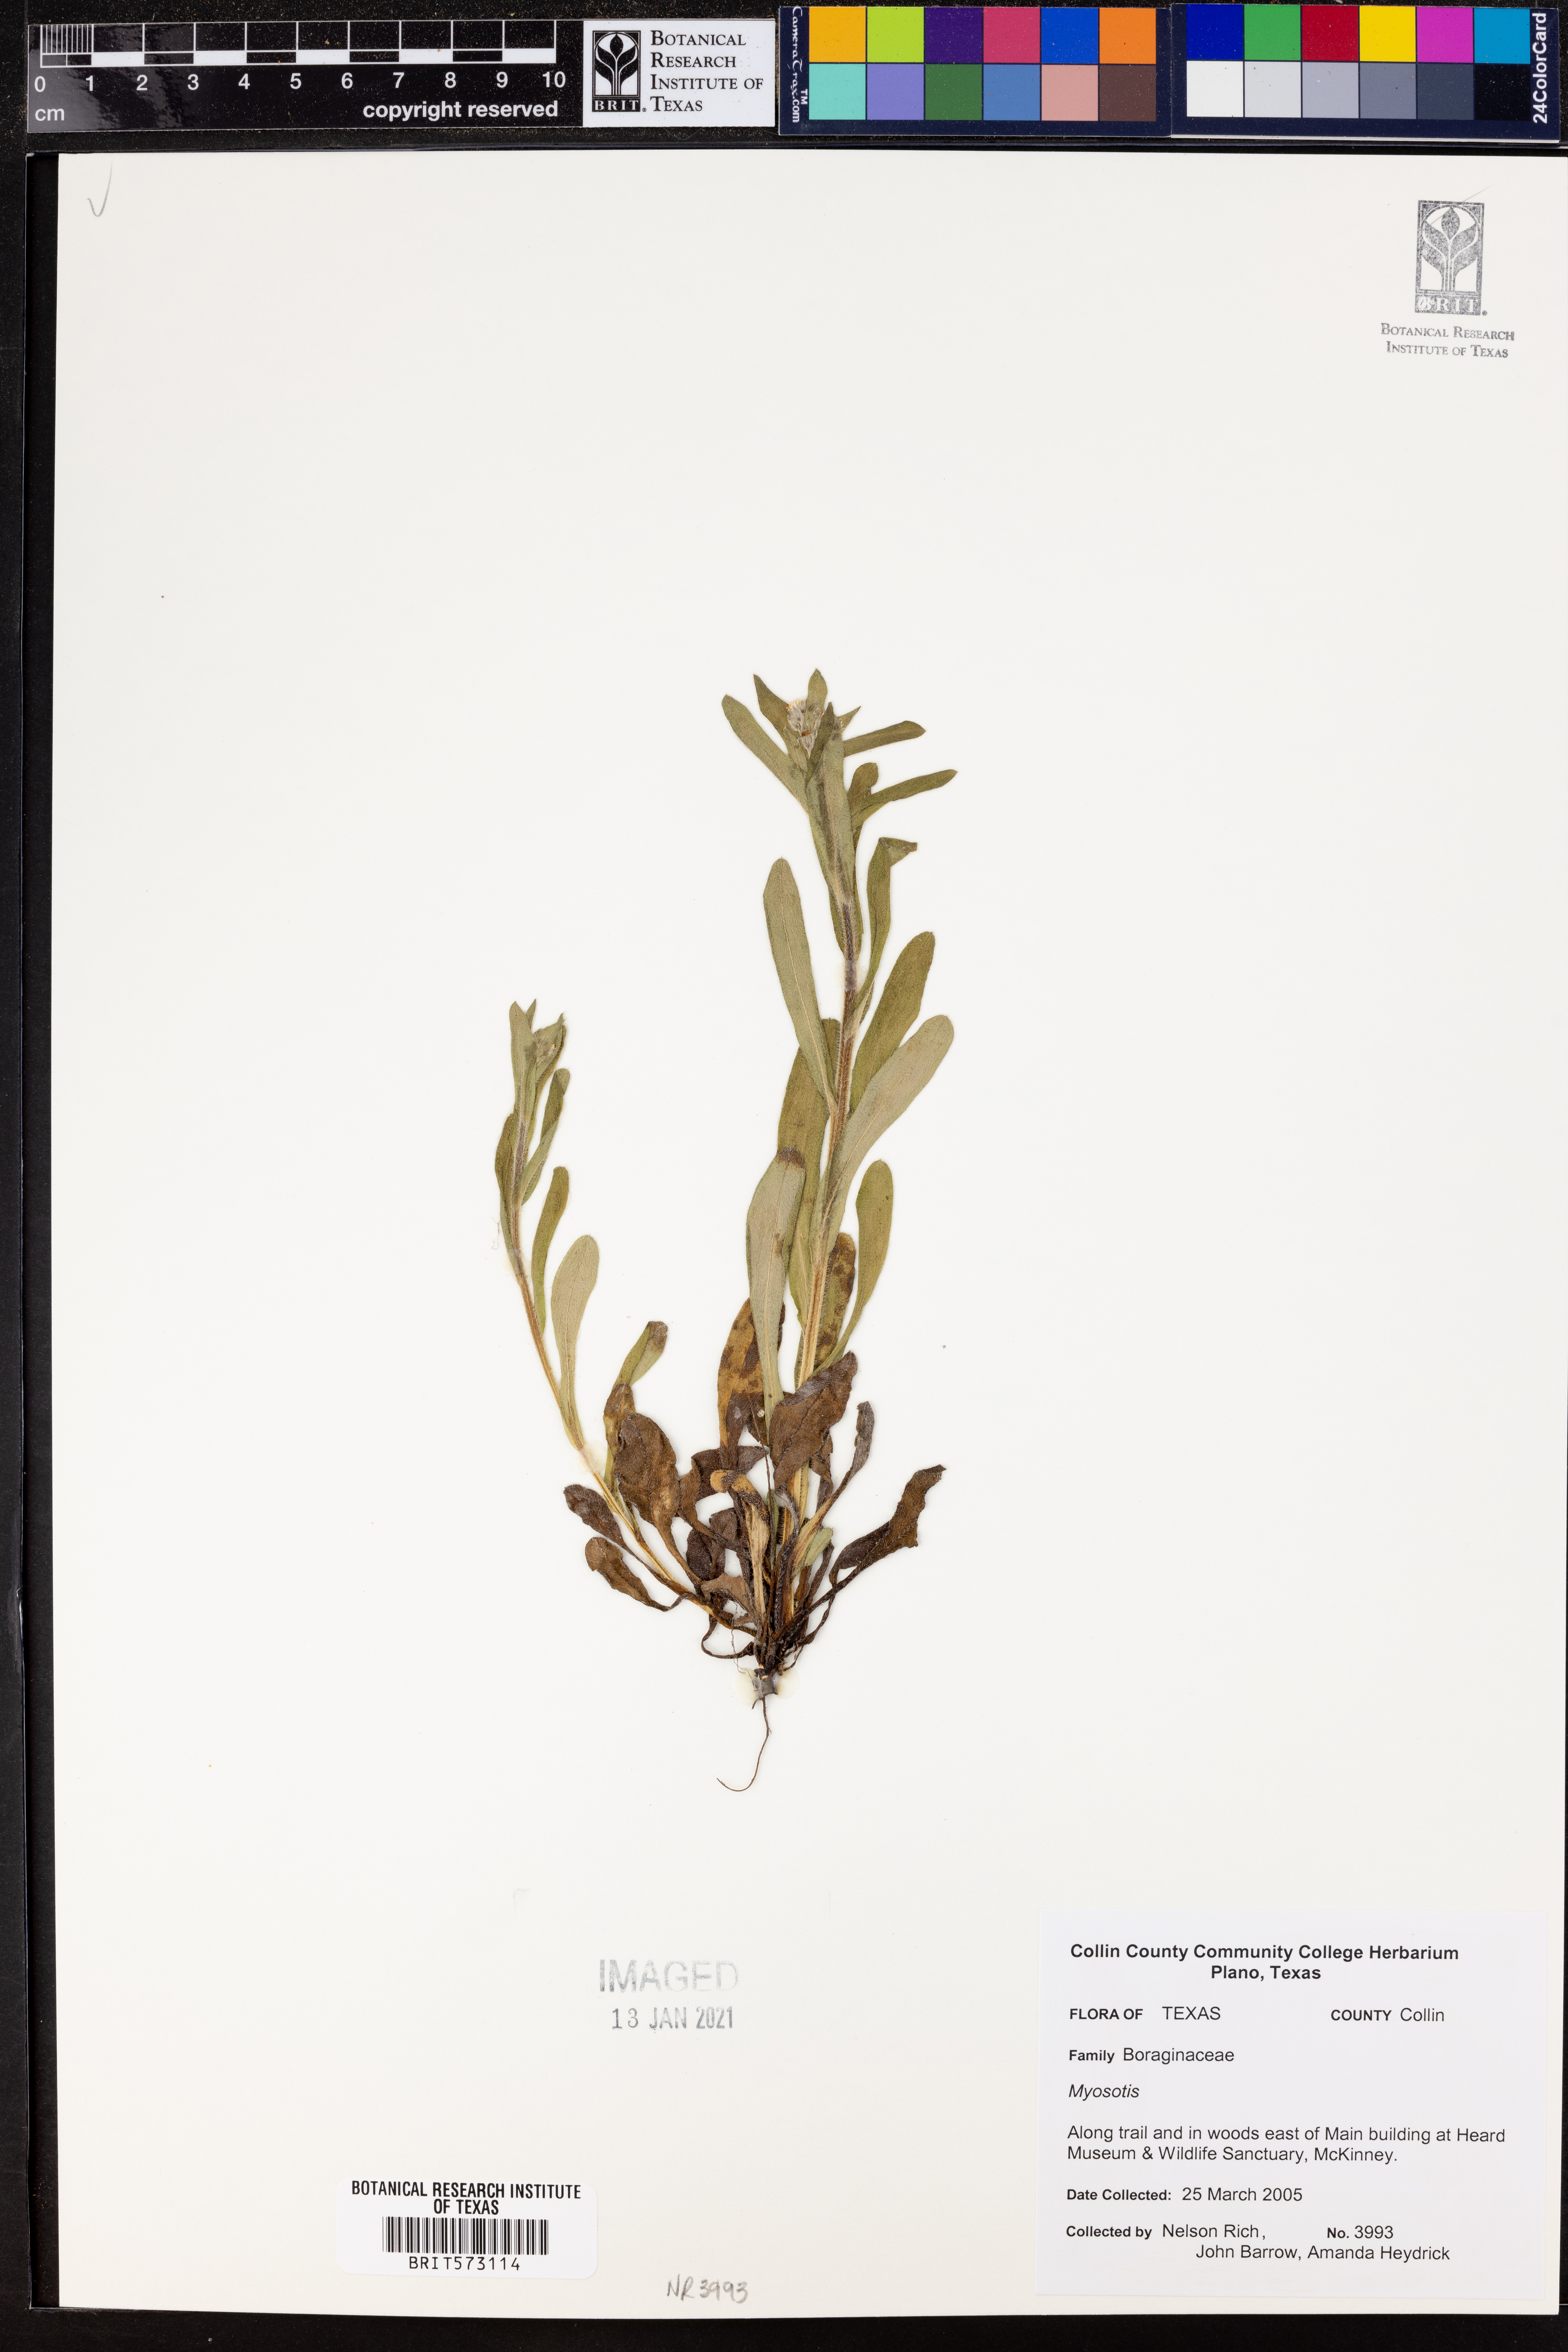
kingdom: Plantae
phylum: Tracheophyta
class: Magnoliopsida
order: Boraginales
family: Boraginaceae
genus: Myosotis
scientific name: Myosotis
